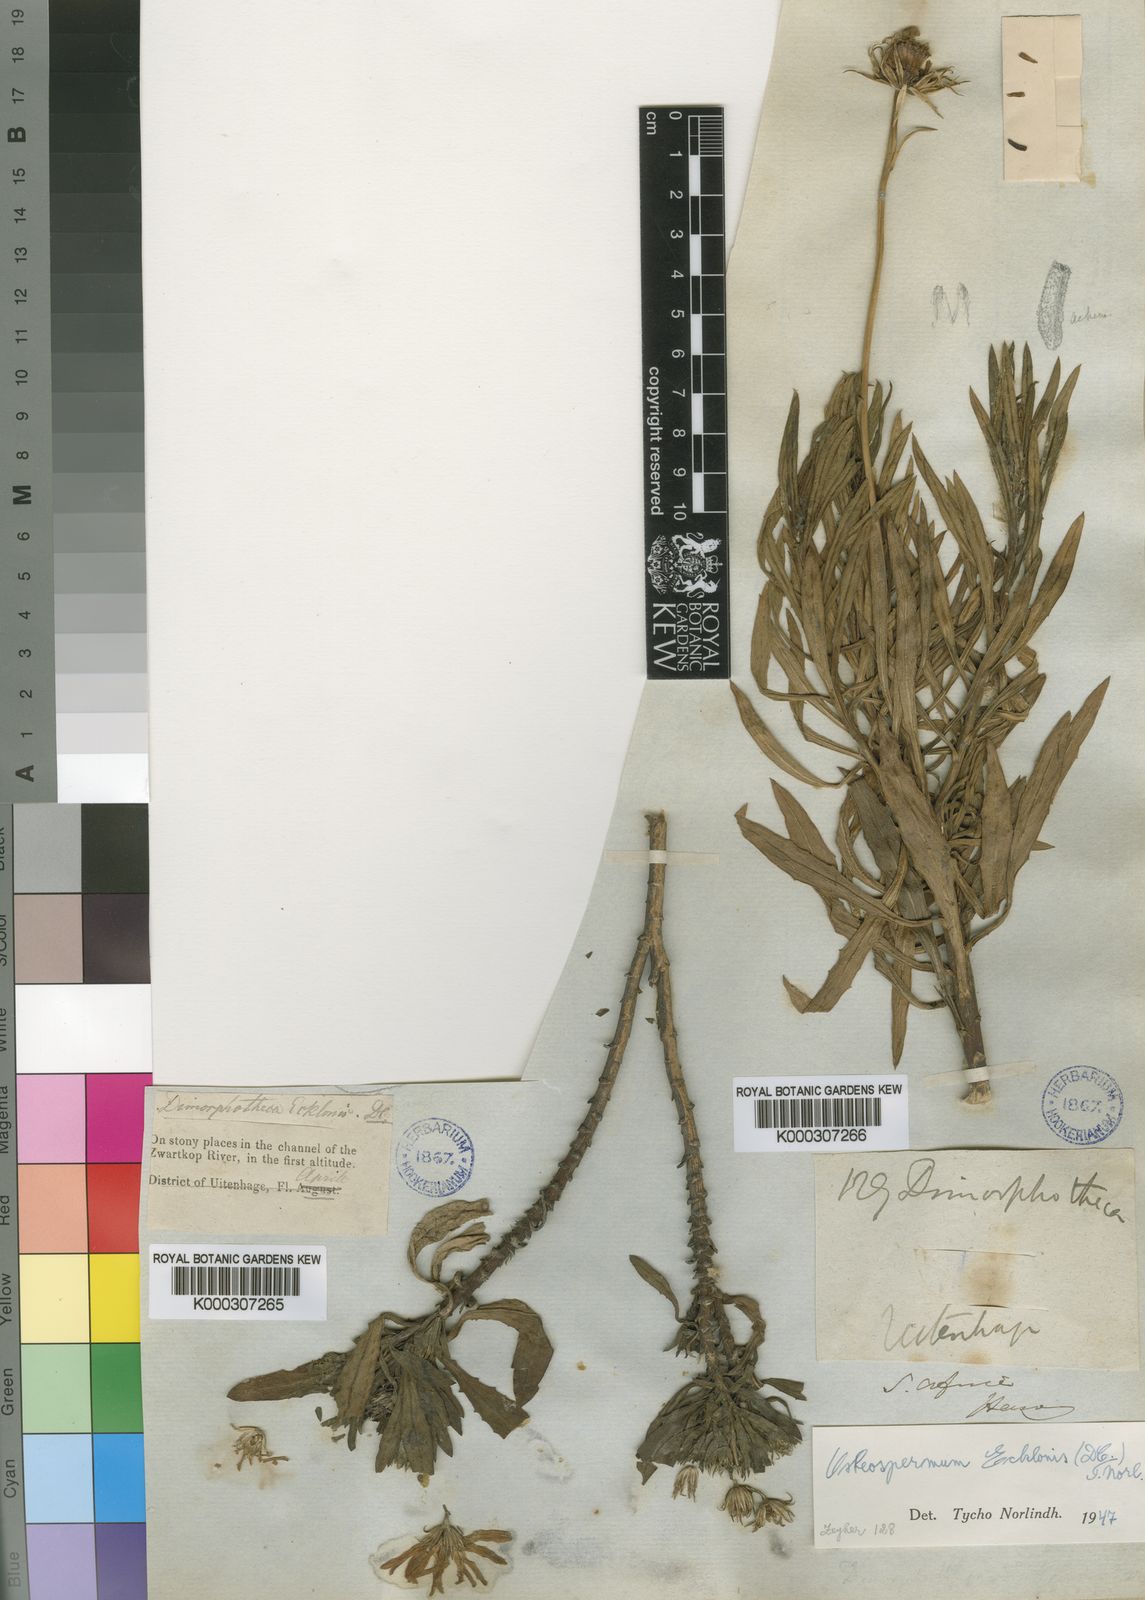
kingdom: Plantae
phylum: Tracheophyta
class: Magnoliopsida
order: Asterales
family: Asteraceae
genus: Dimorphotheca
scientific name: Dimorphotheca ecklonis
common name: Vanstaden's river daisy
